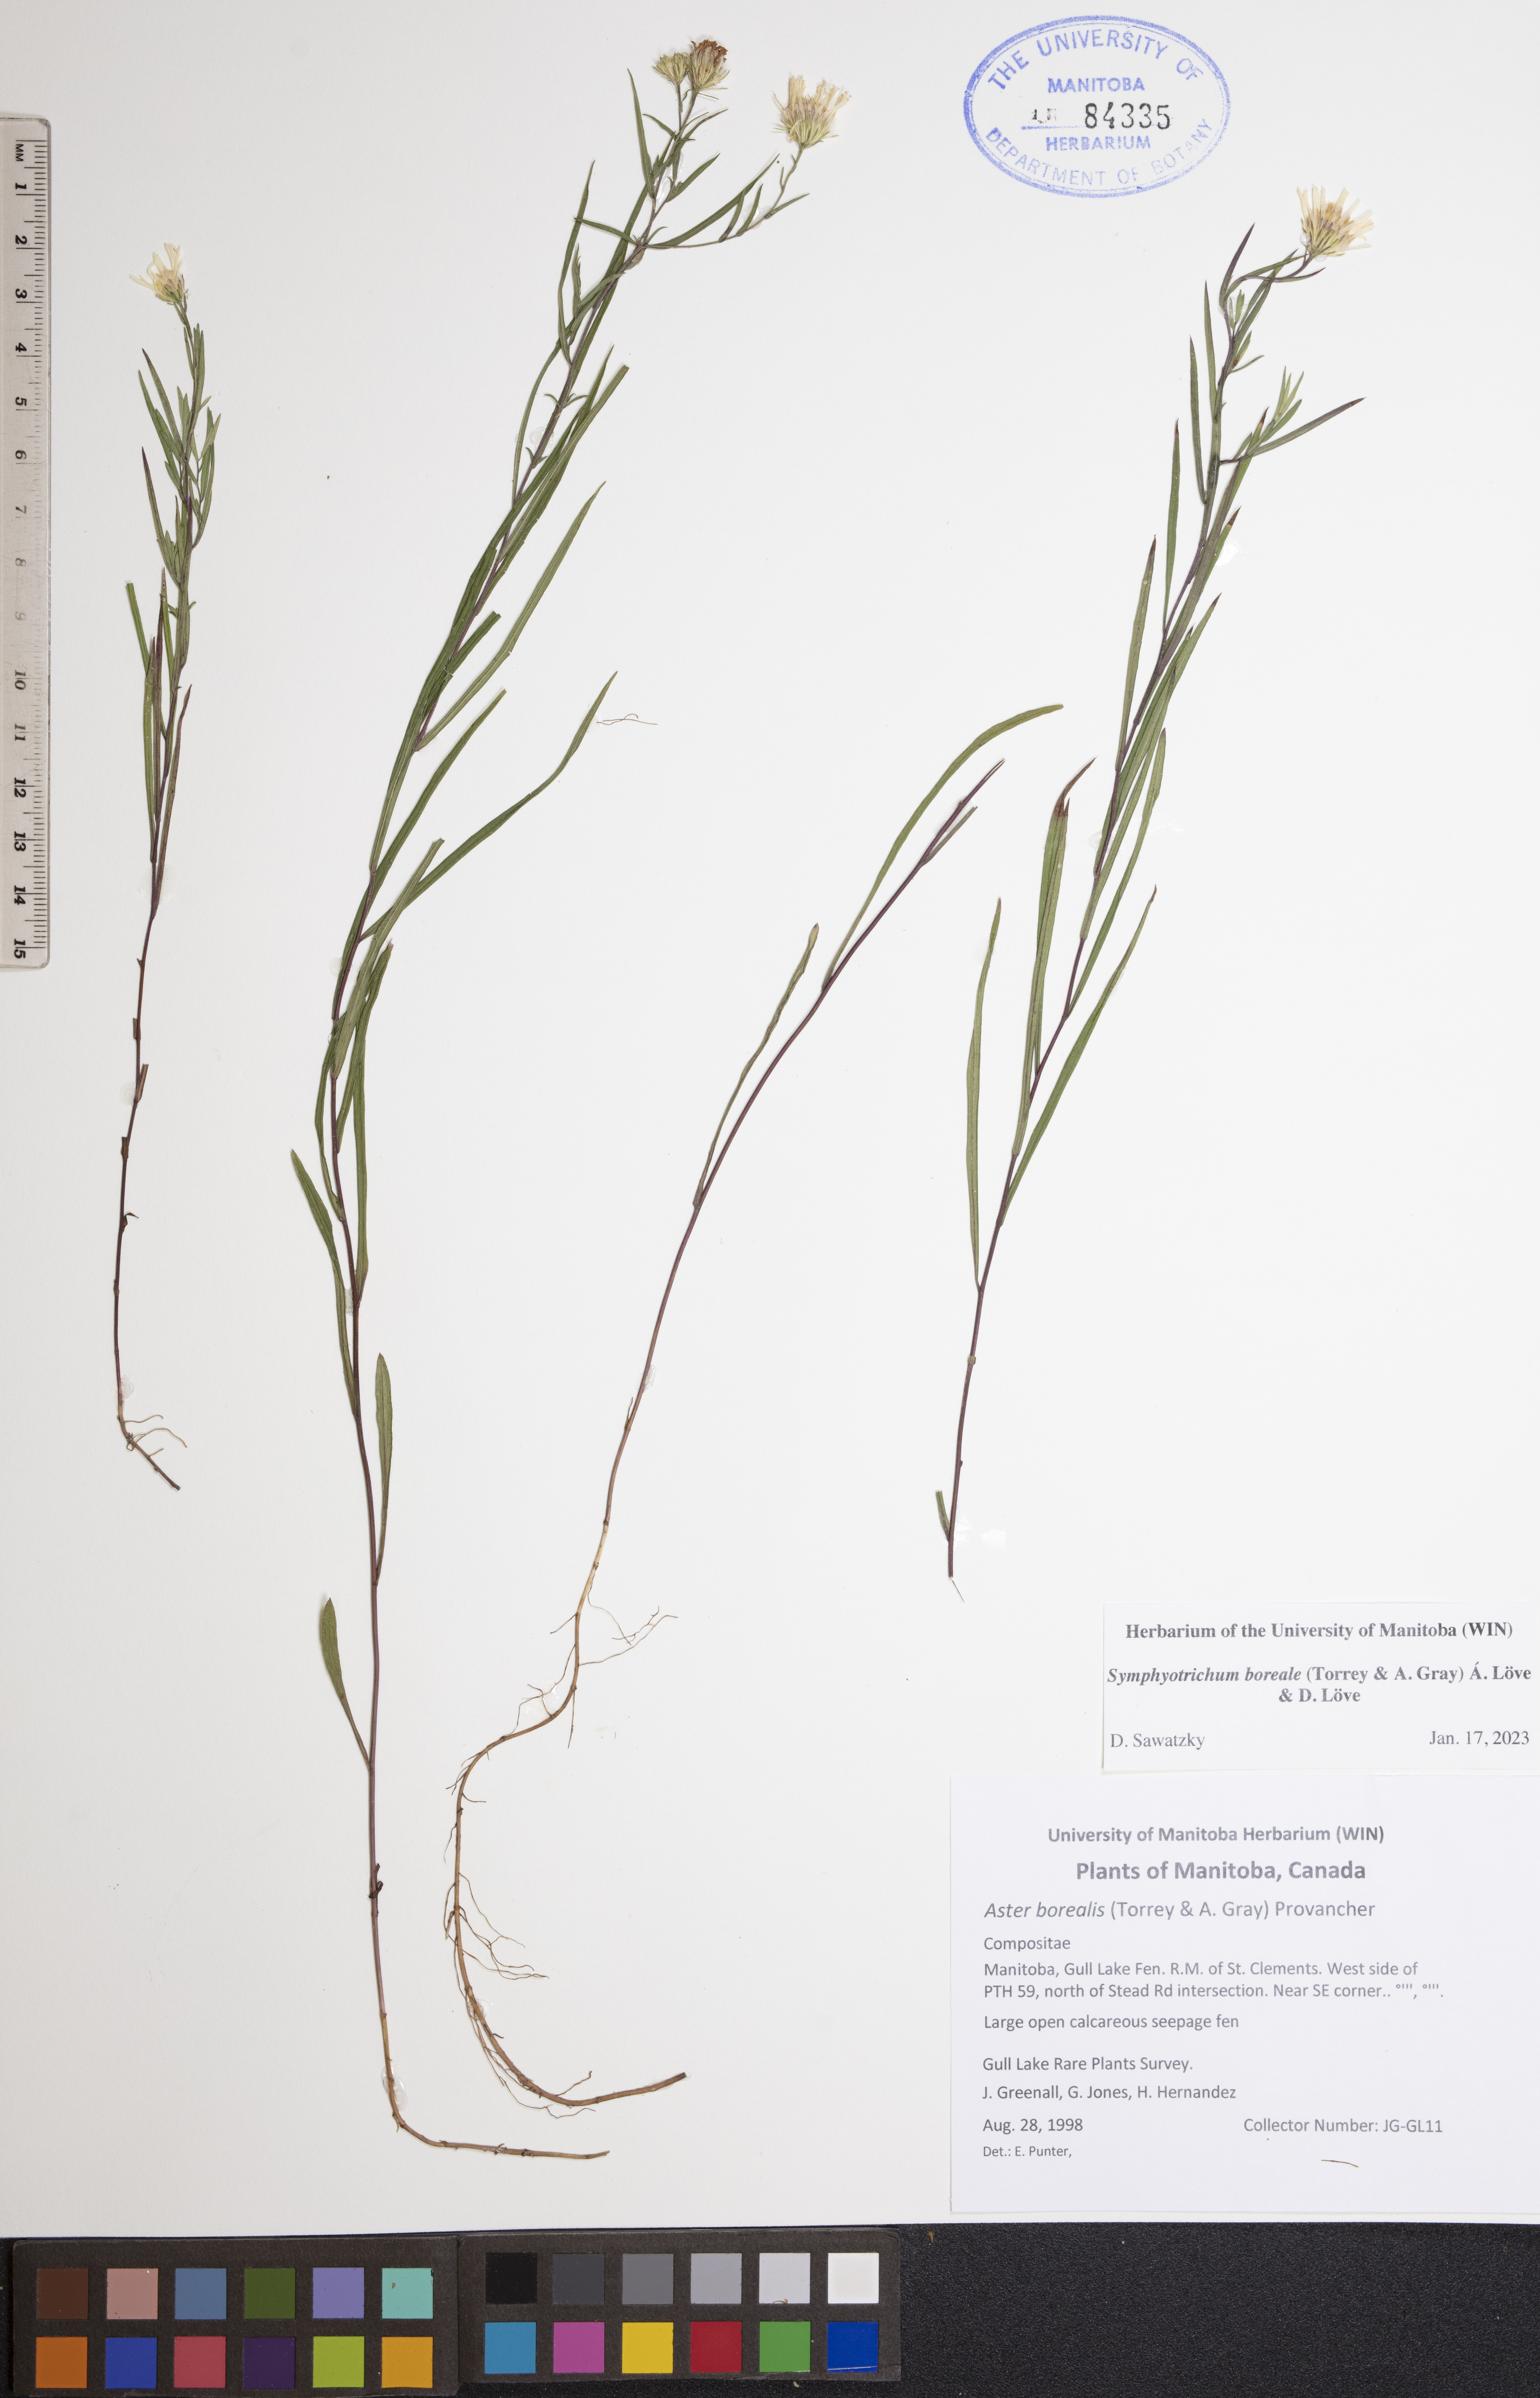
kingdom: Plantae
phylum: Tracheophyta
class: Magnoliopsida
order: Asterales
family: Asteraceae
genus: Symphyotrichum
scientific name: Symphyotrichum boreale
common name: Northern bog aster
